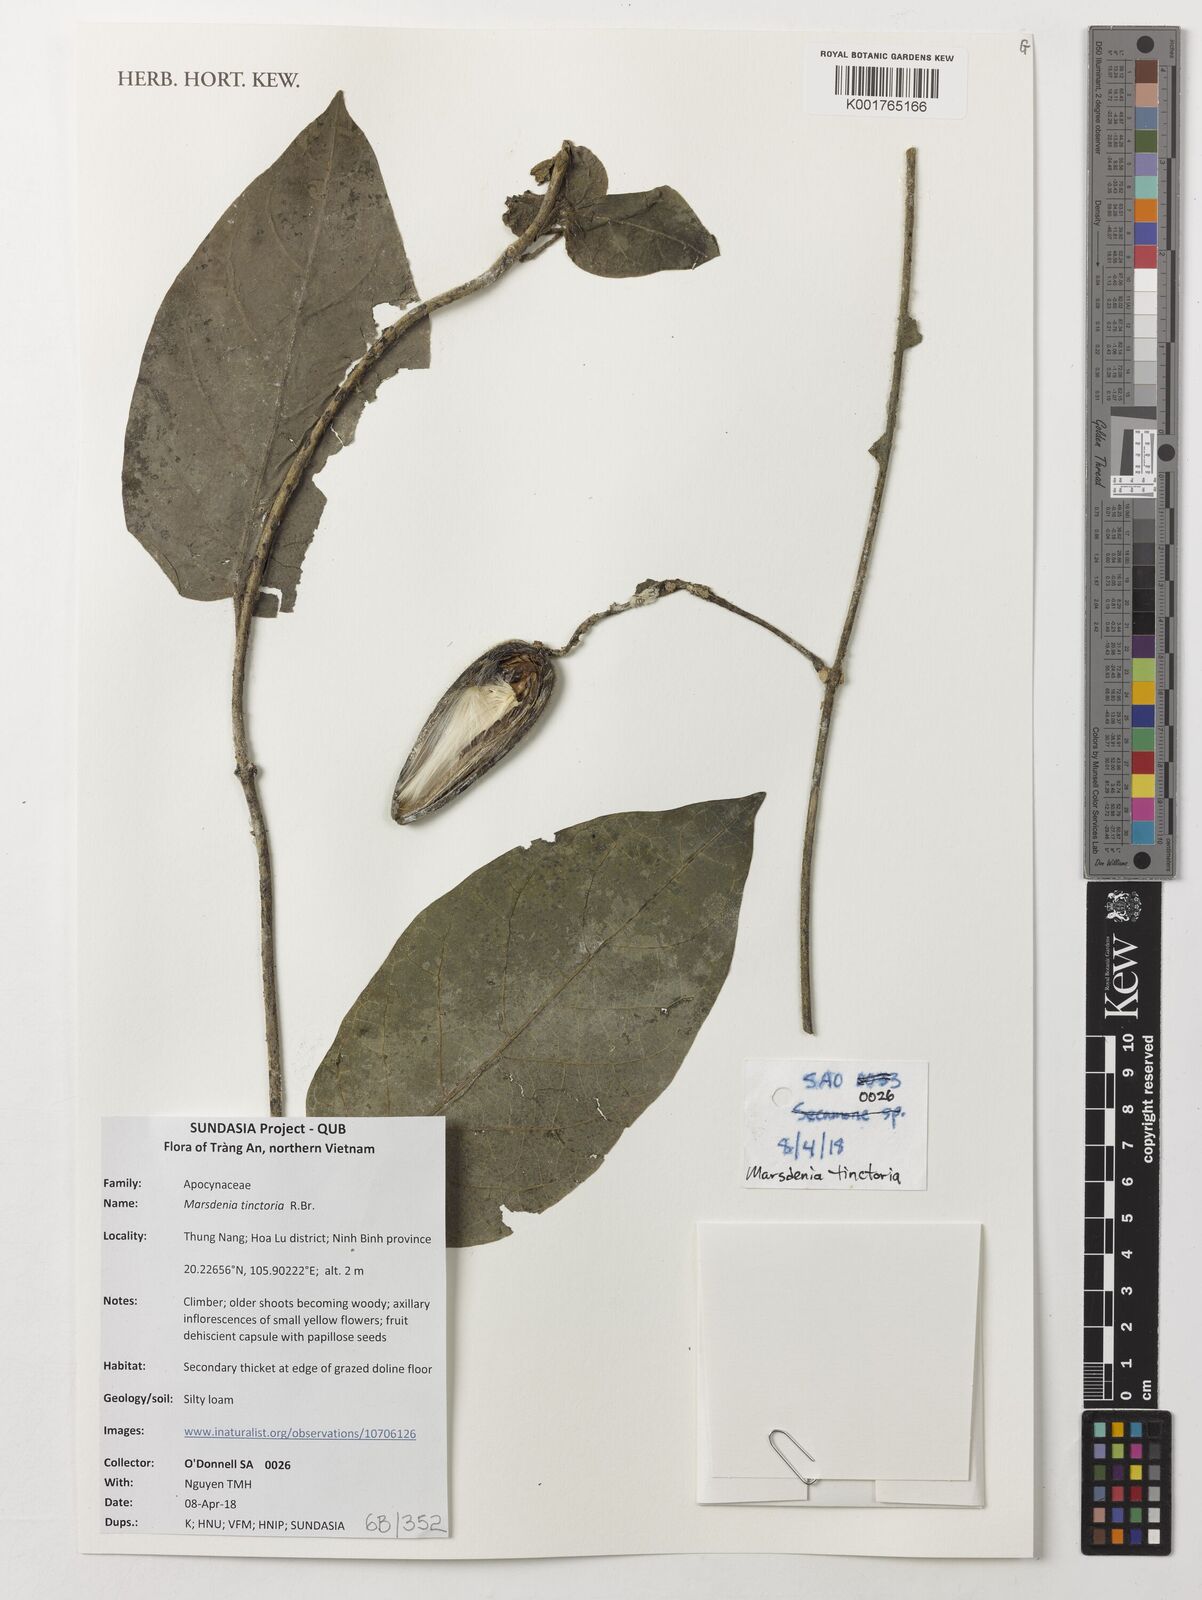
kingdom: Plantae
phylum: Tracheophyta
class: Magnoliopsida
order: Gentianales
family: Apocynaceae
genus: Marsdenia
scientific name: Marsdenia tinctoria
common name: Climbing-indigo
